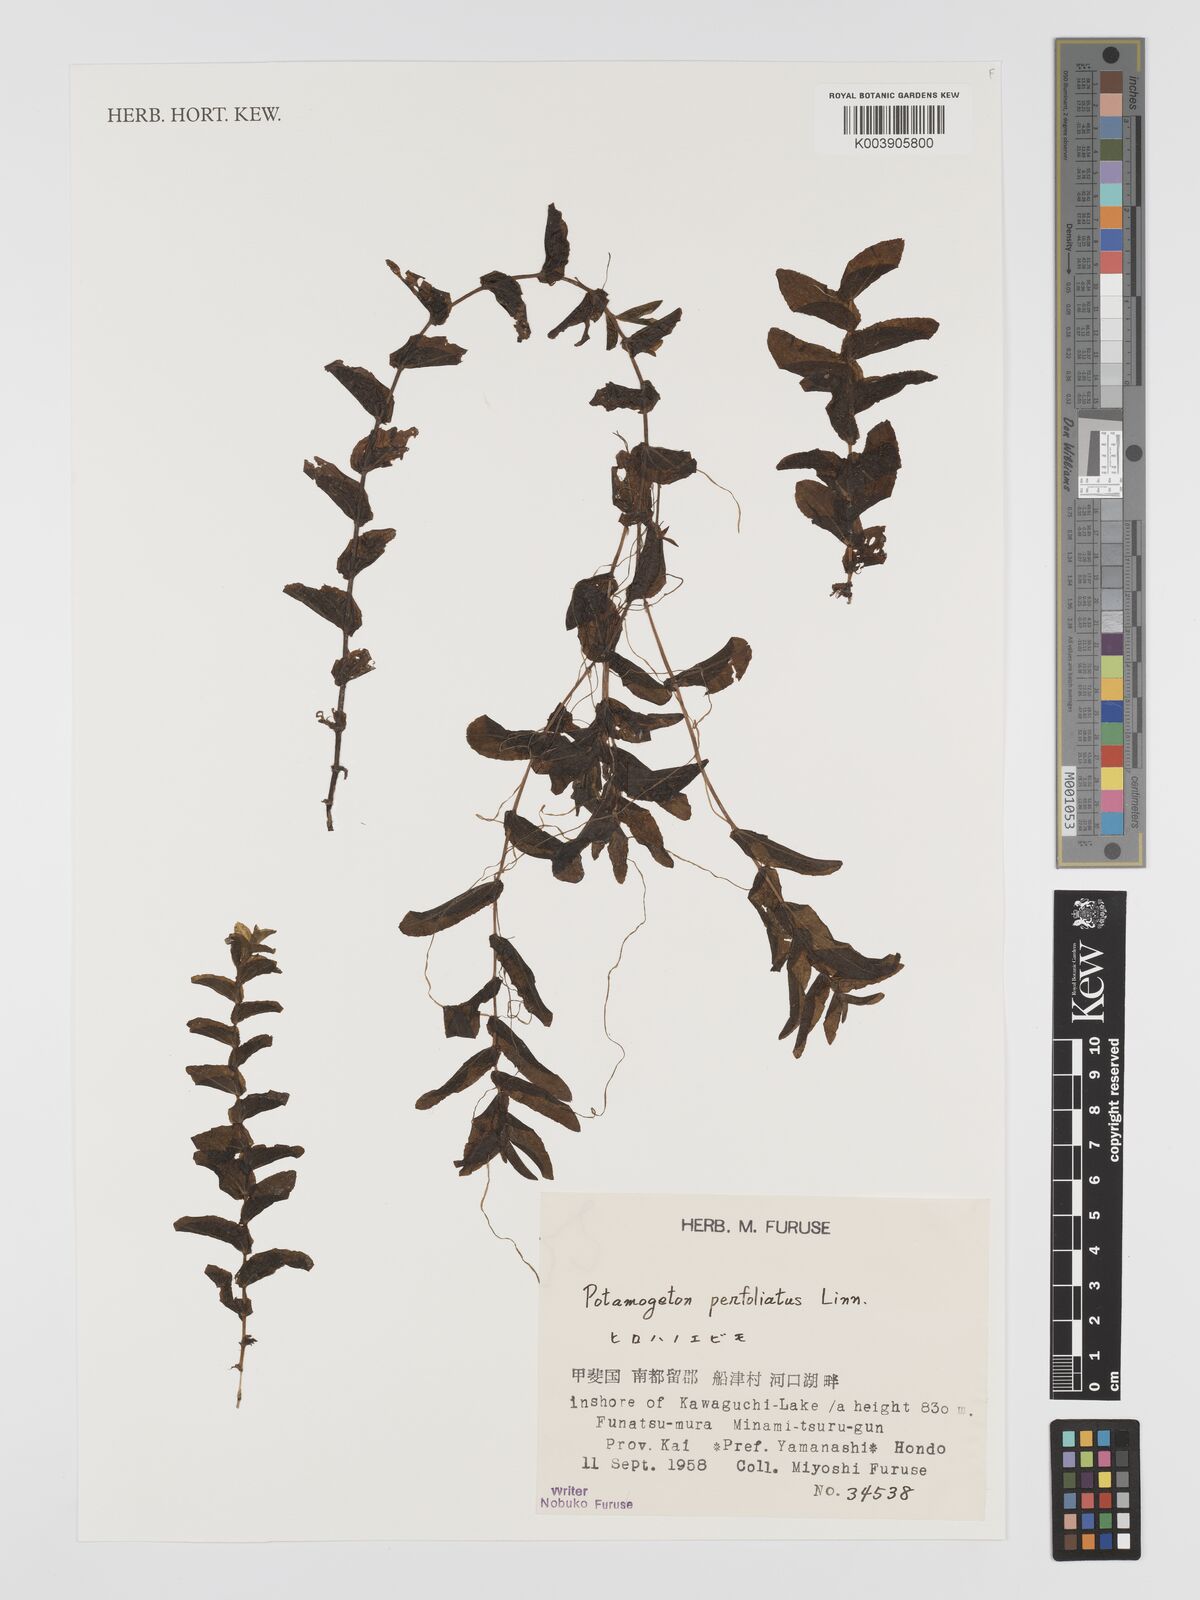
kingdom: Plantae
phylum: Tracheophyta
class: Liliopsida
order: Alismatales
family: Potamogetonaceae
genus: Potamogeton
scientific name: Potamogeton perfoliatus
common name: Perfoliate pondweed
